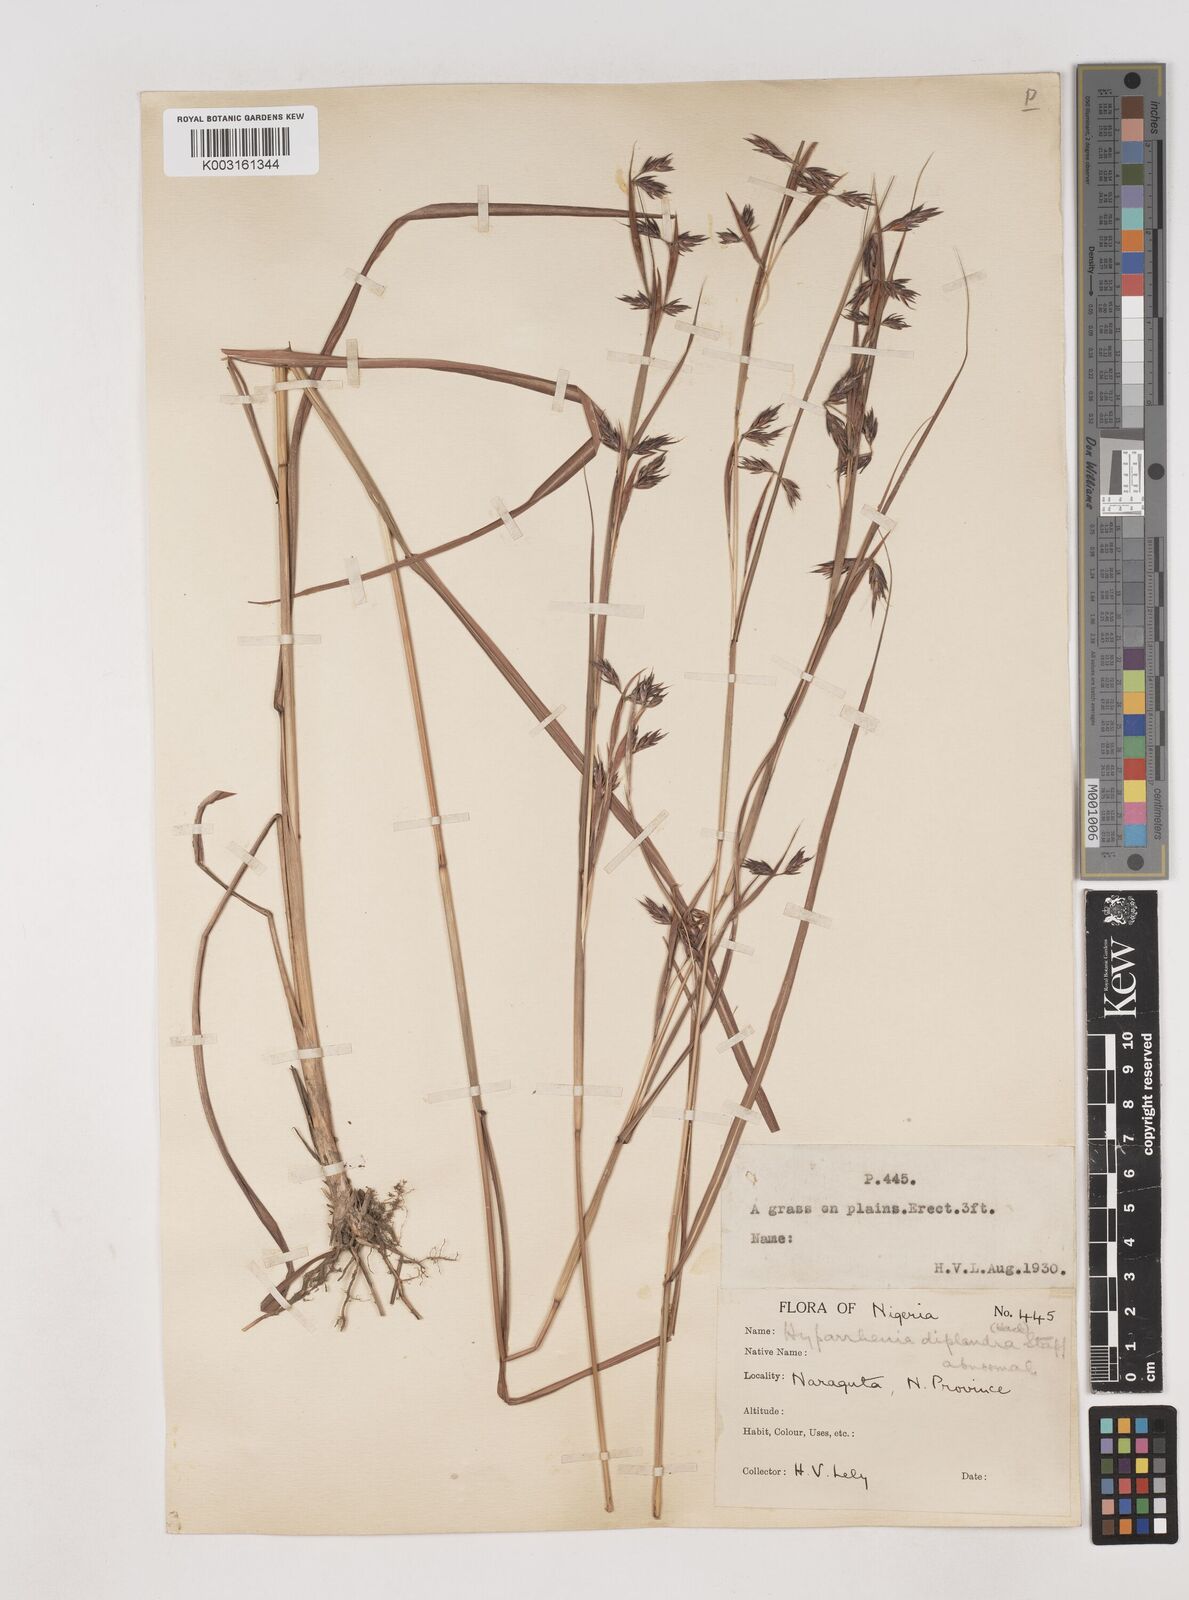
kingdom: Plantae
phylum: Tracheophyta
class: Liliopsida
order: Poales
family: Poaceae
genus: Hyparrhenia
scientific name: Hyparrhenia subplumosa
